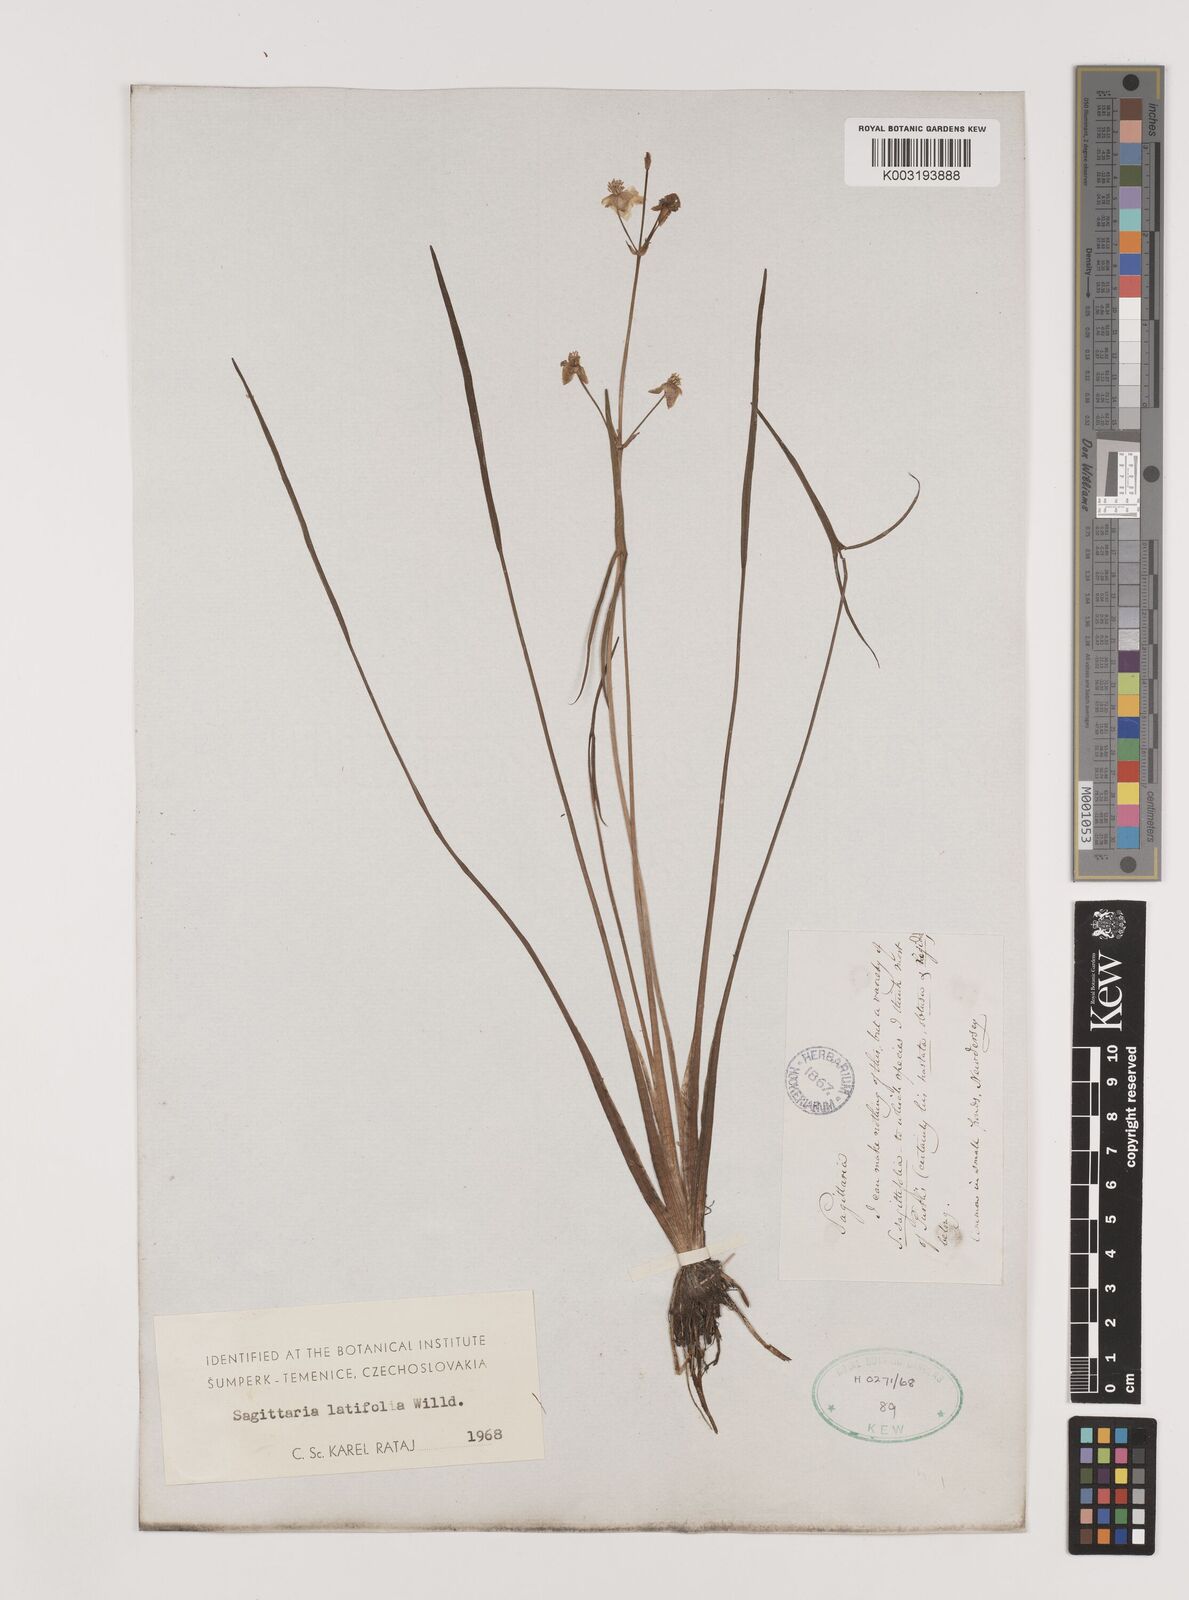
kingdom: Plantae
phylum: Tracheophyta
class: Liliopsida
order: Alismatales
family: Alismataceae
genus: Sagittaria
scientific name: Sagittaria latifolia
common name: Duck-potato
